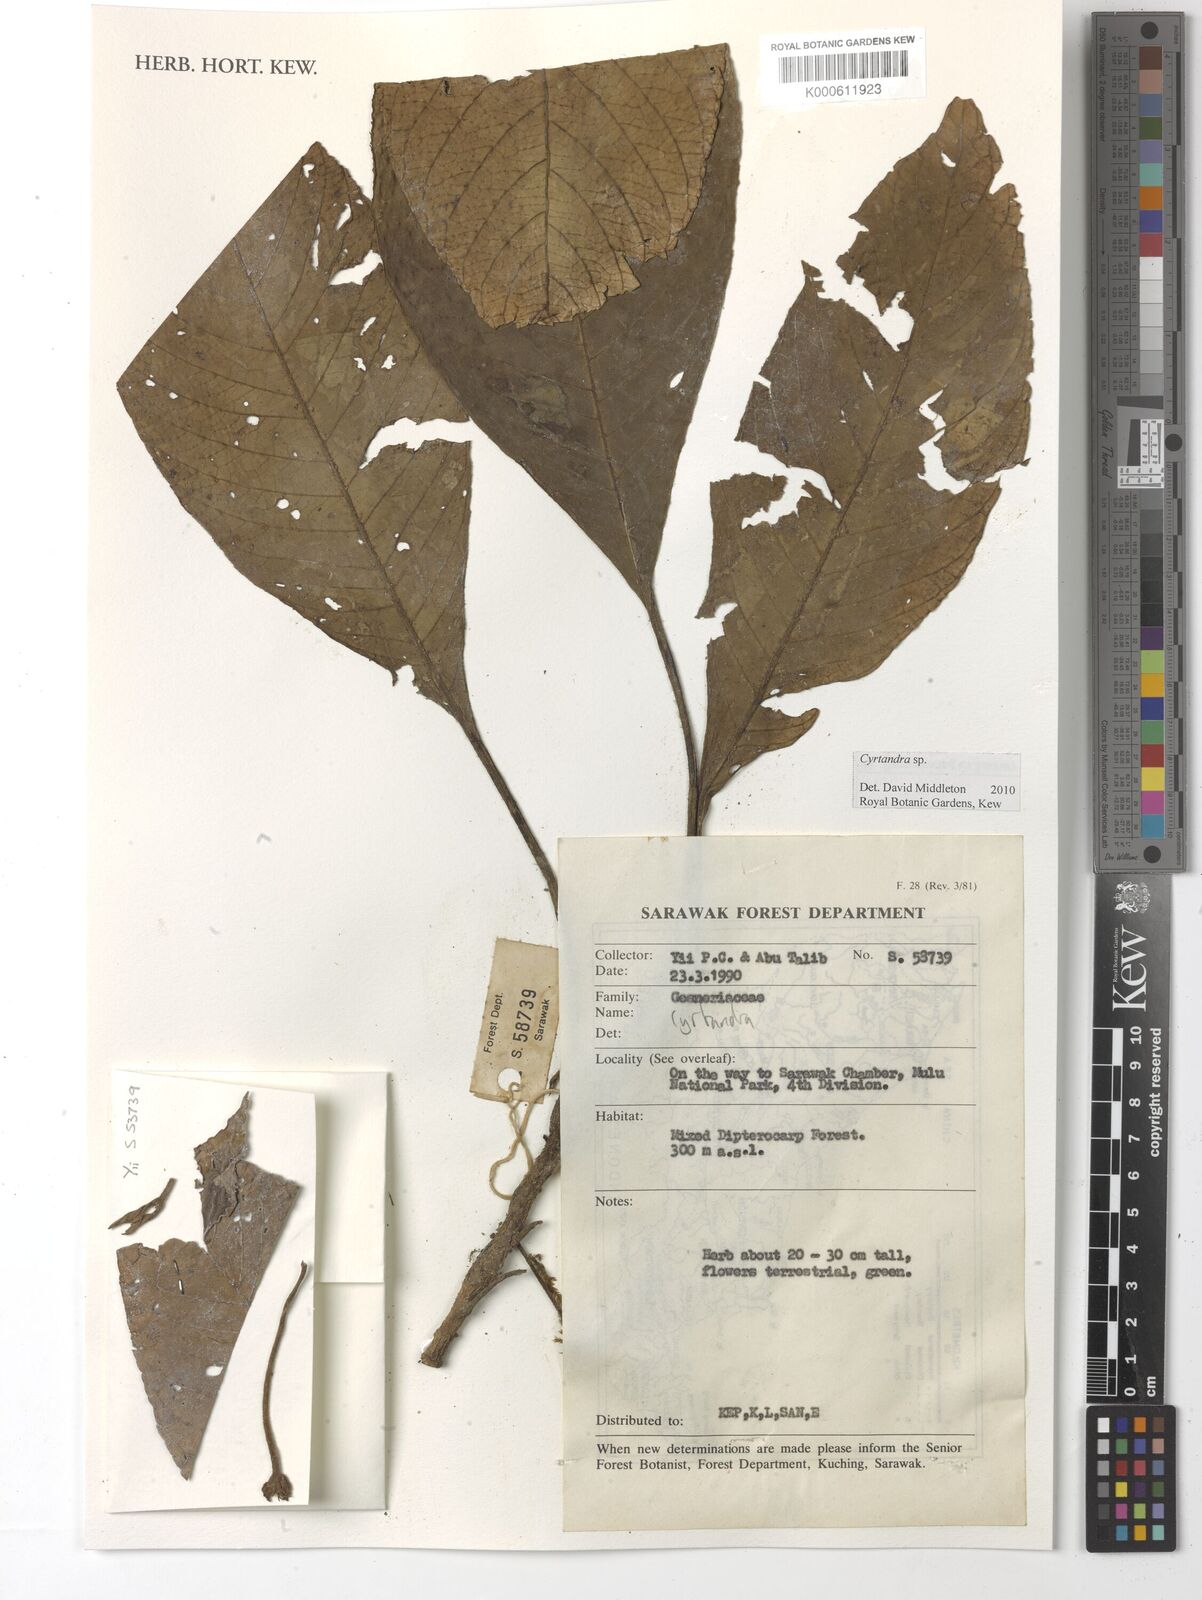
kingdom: Plantae
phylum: Tracheophyta
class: Magnoliopsida
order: Lamiales
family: Gesneriaceae
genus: Cyrtandra
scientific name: Cyrtandra
